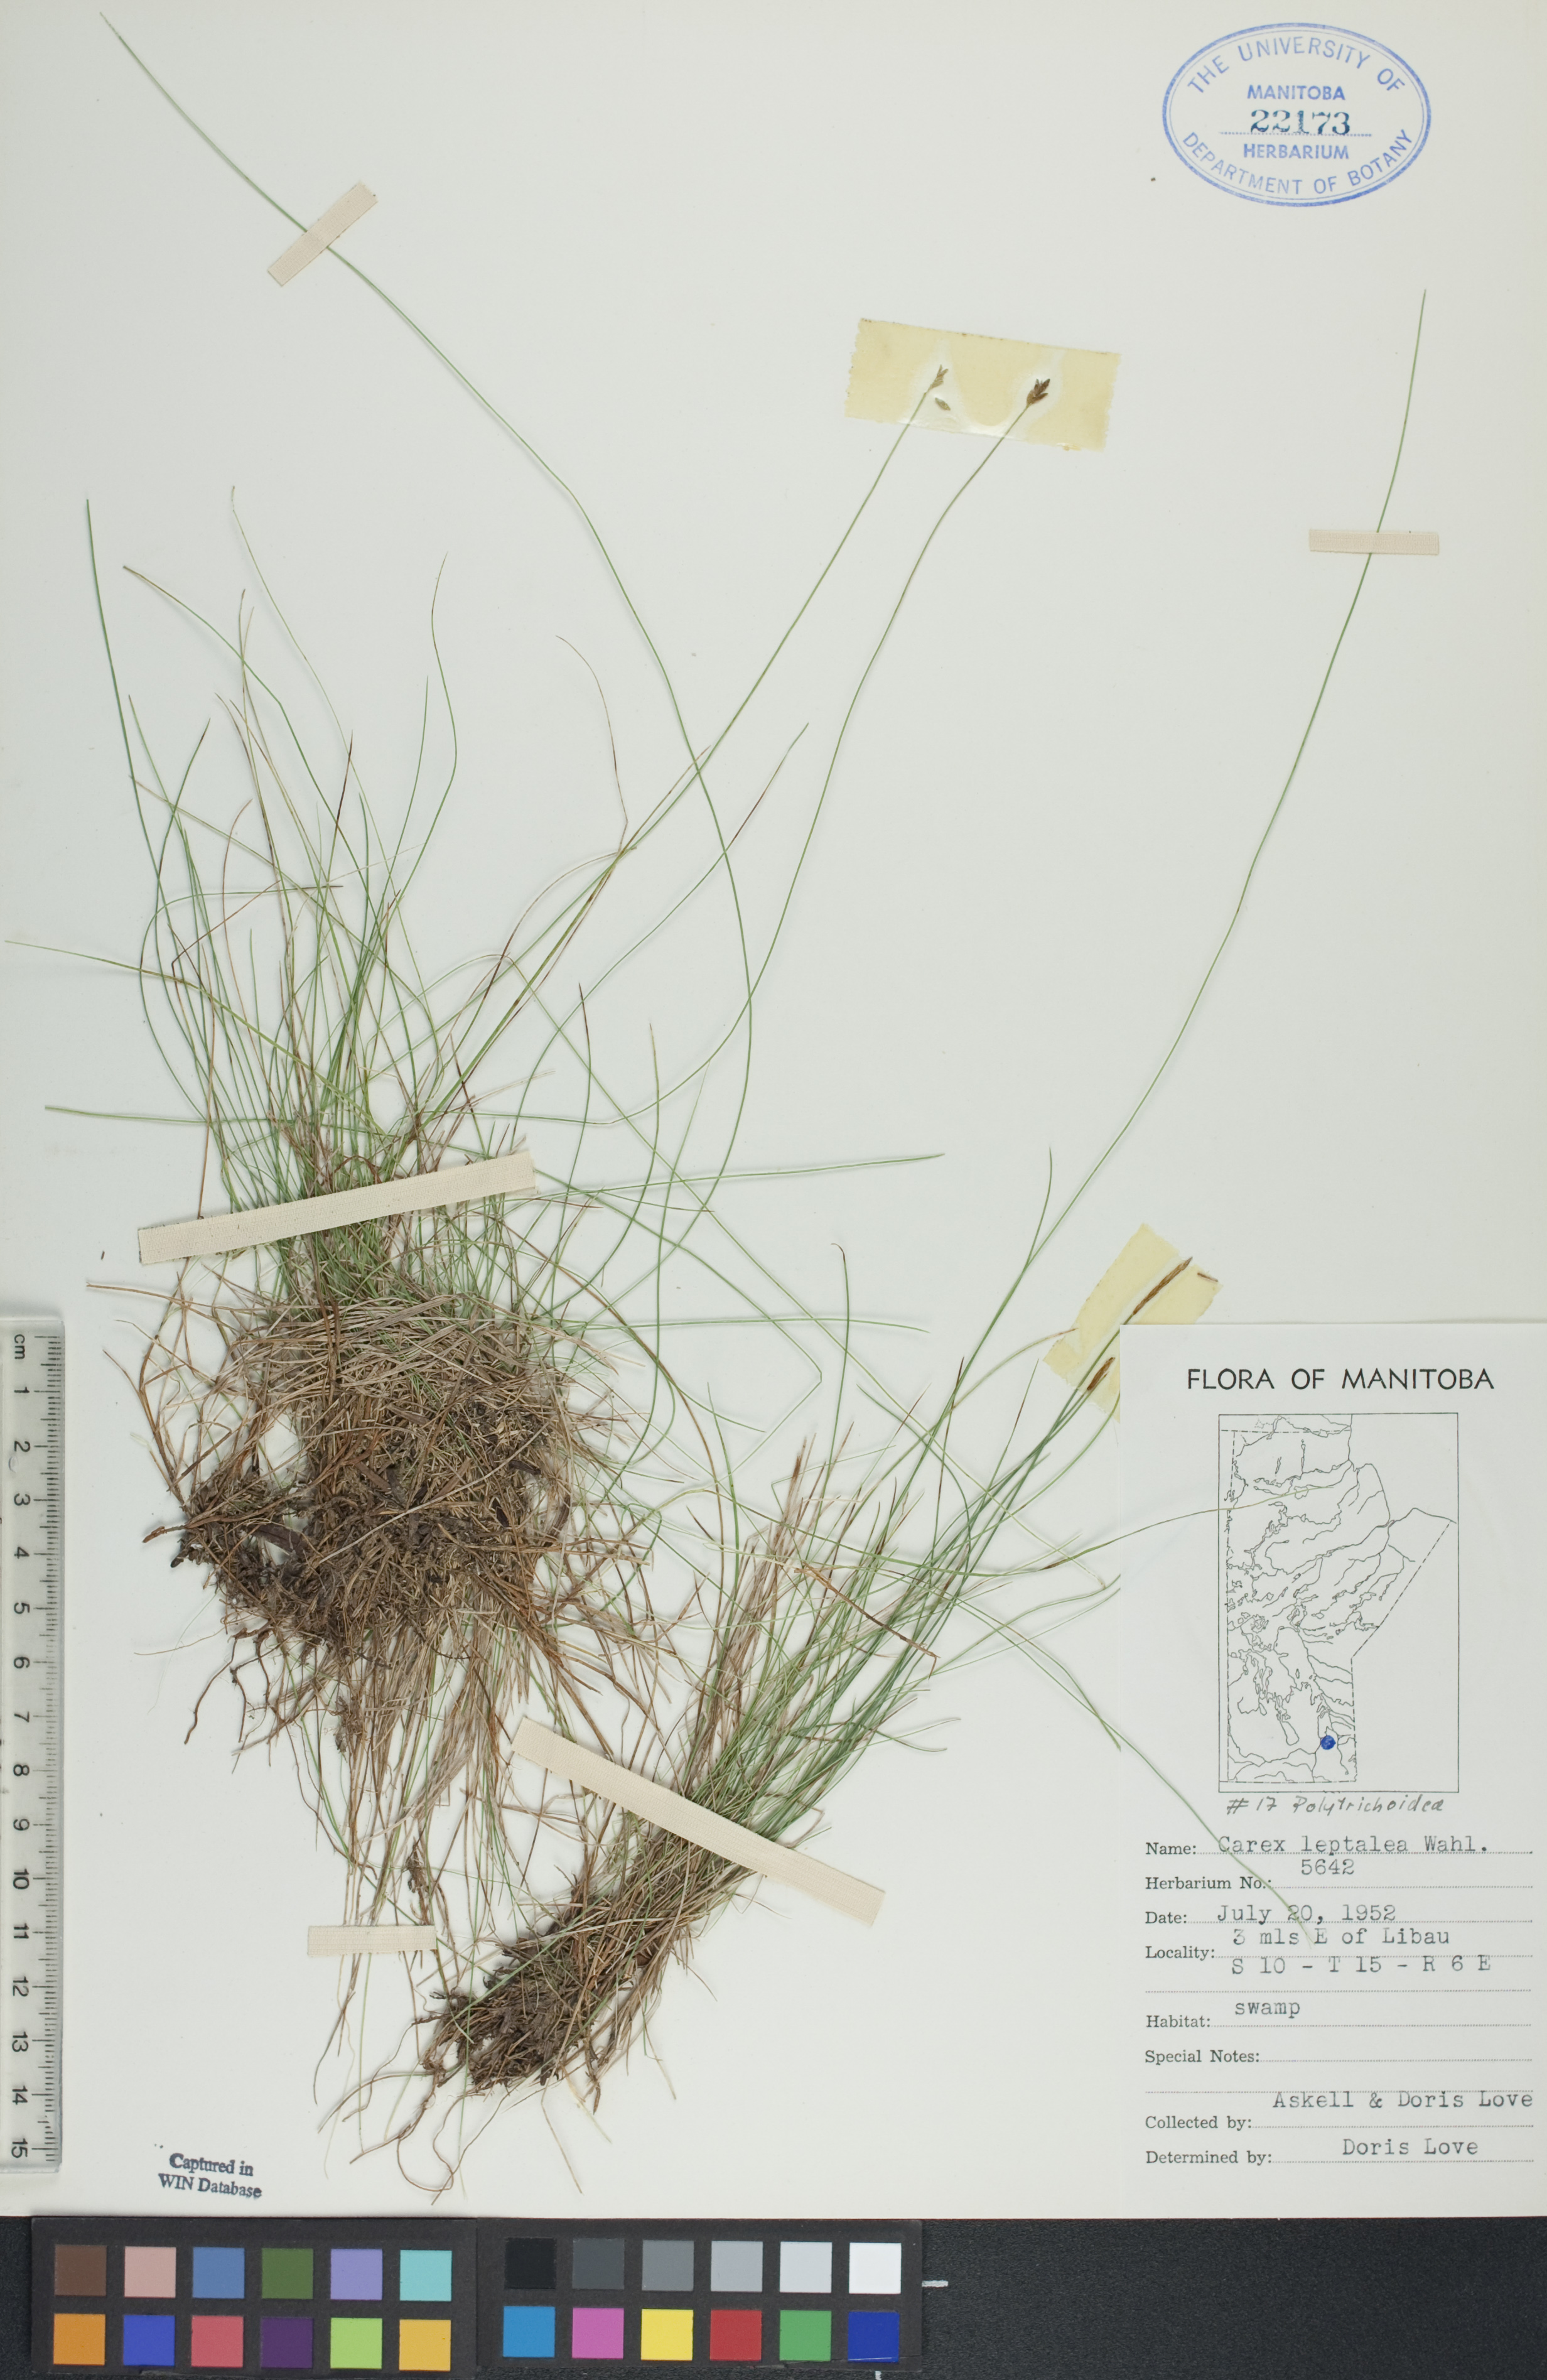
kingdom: Plantae
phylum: Tracheophyta
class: Liliopsida
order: Poales
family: Cyperaceae
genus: Carex
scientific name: Carex leptalea
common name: Bristly-stalked sedge
